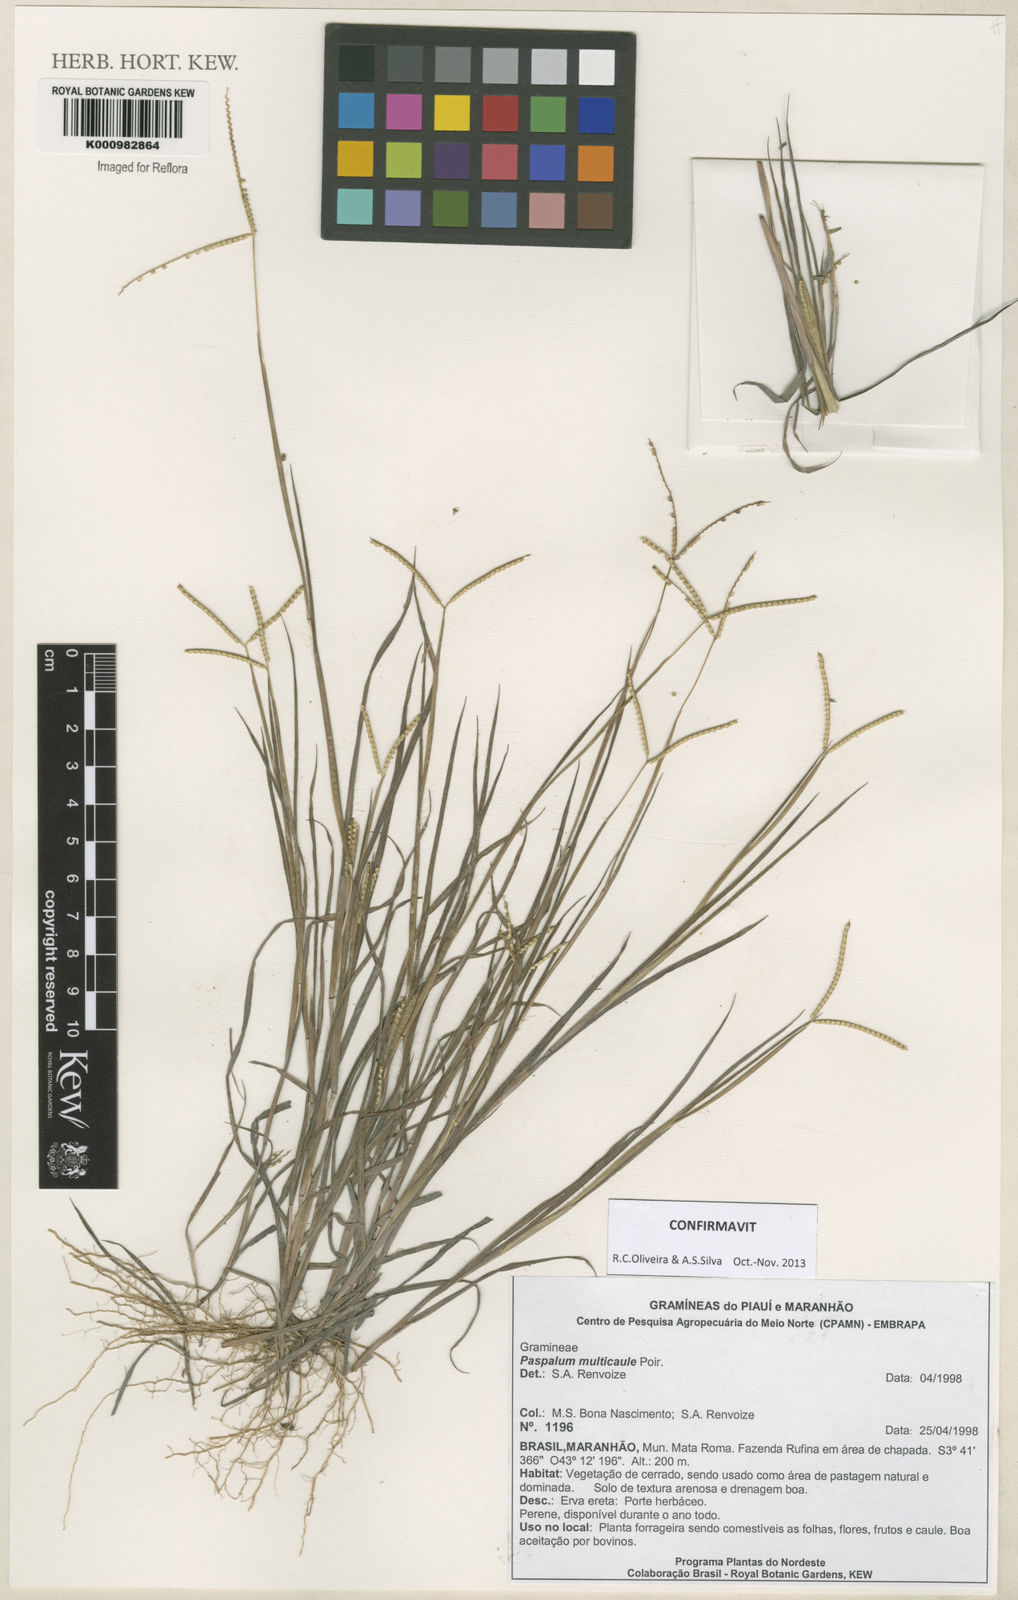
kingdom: Plantae
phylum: Tracheophyta
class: Liliopsida
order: Poales
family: Poaceae
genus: Paspalum
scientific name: Paspalum multicaule
